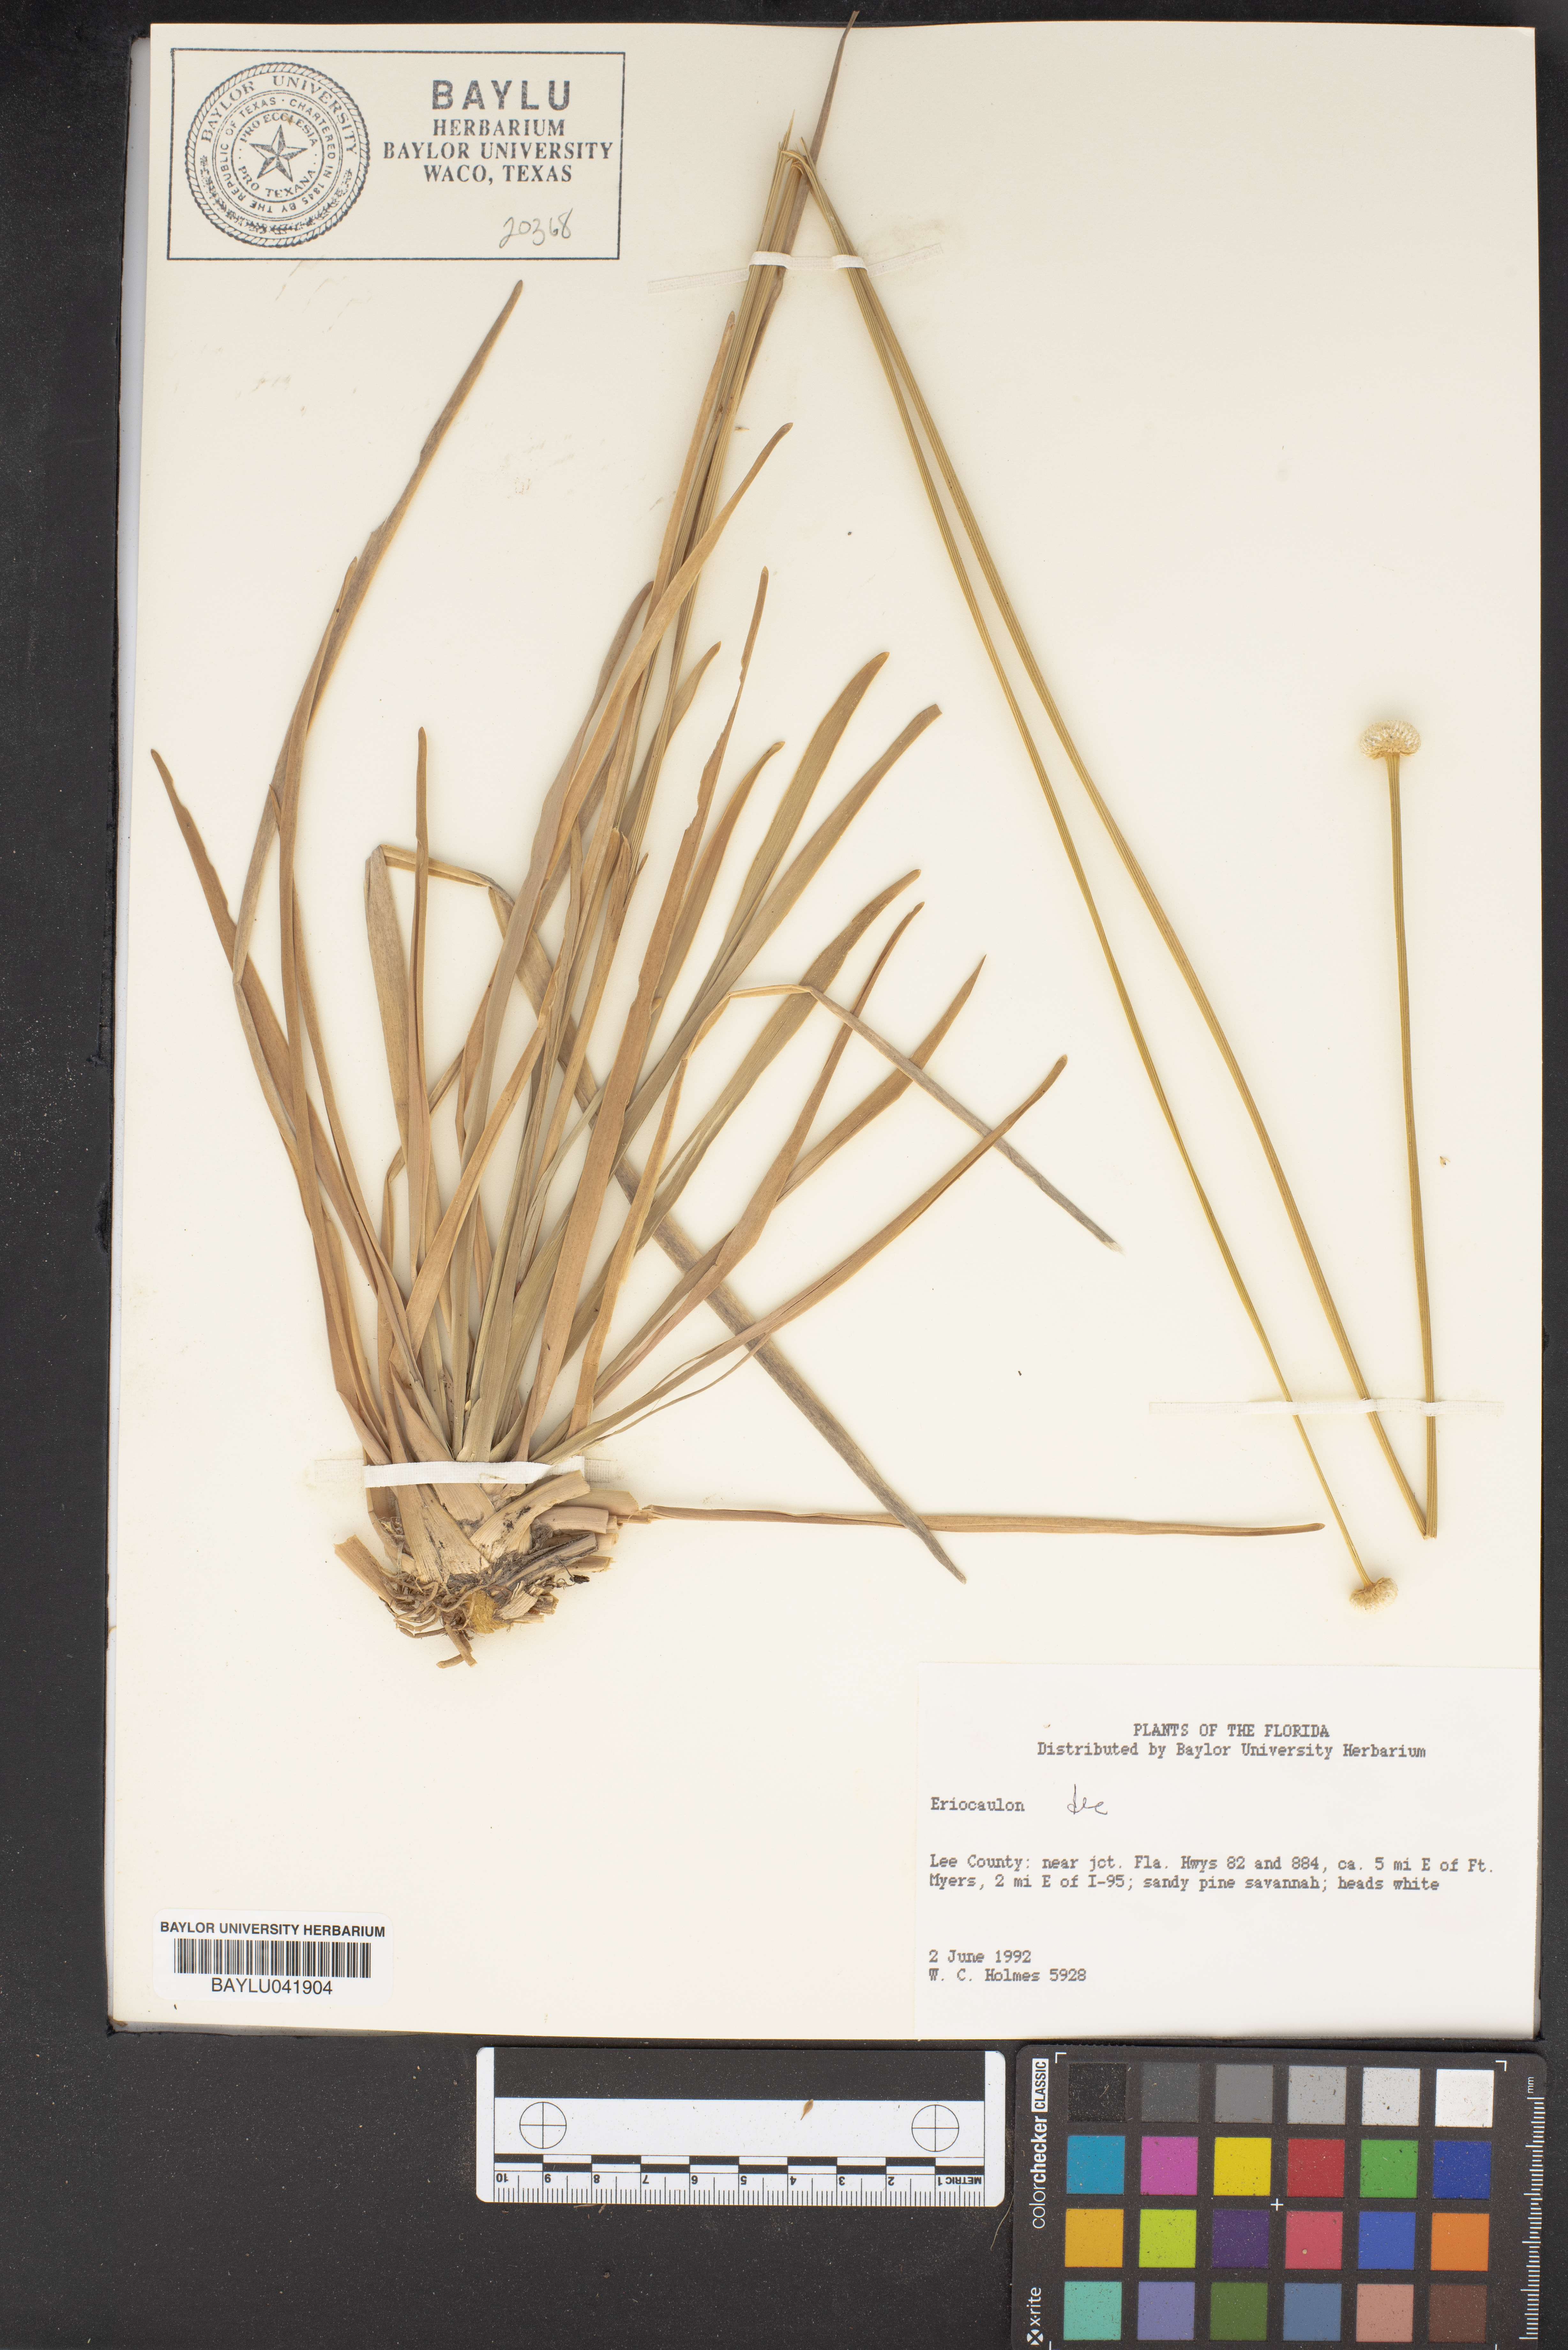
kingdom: Plantae
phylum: Tracheophyta
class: Liliopsida
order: Poales
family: Eriocaulaceae
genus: Eriocaulon
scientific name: Eriocaulon
